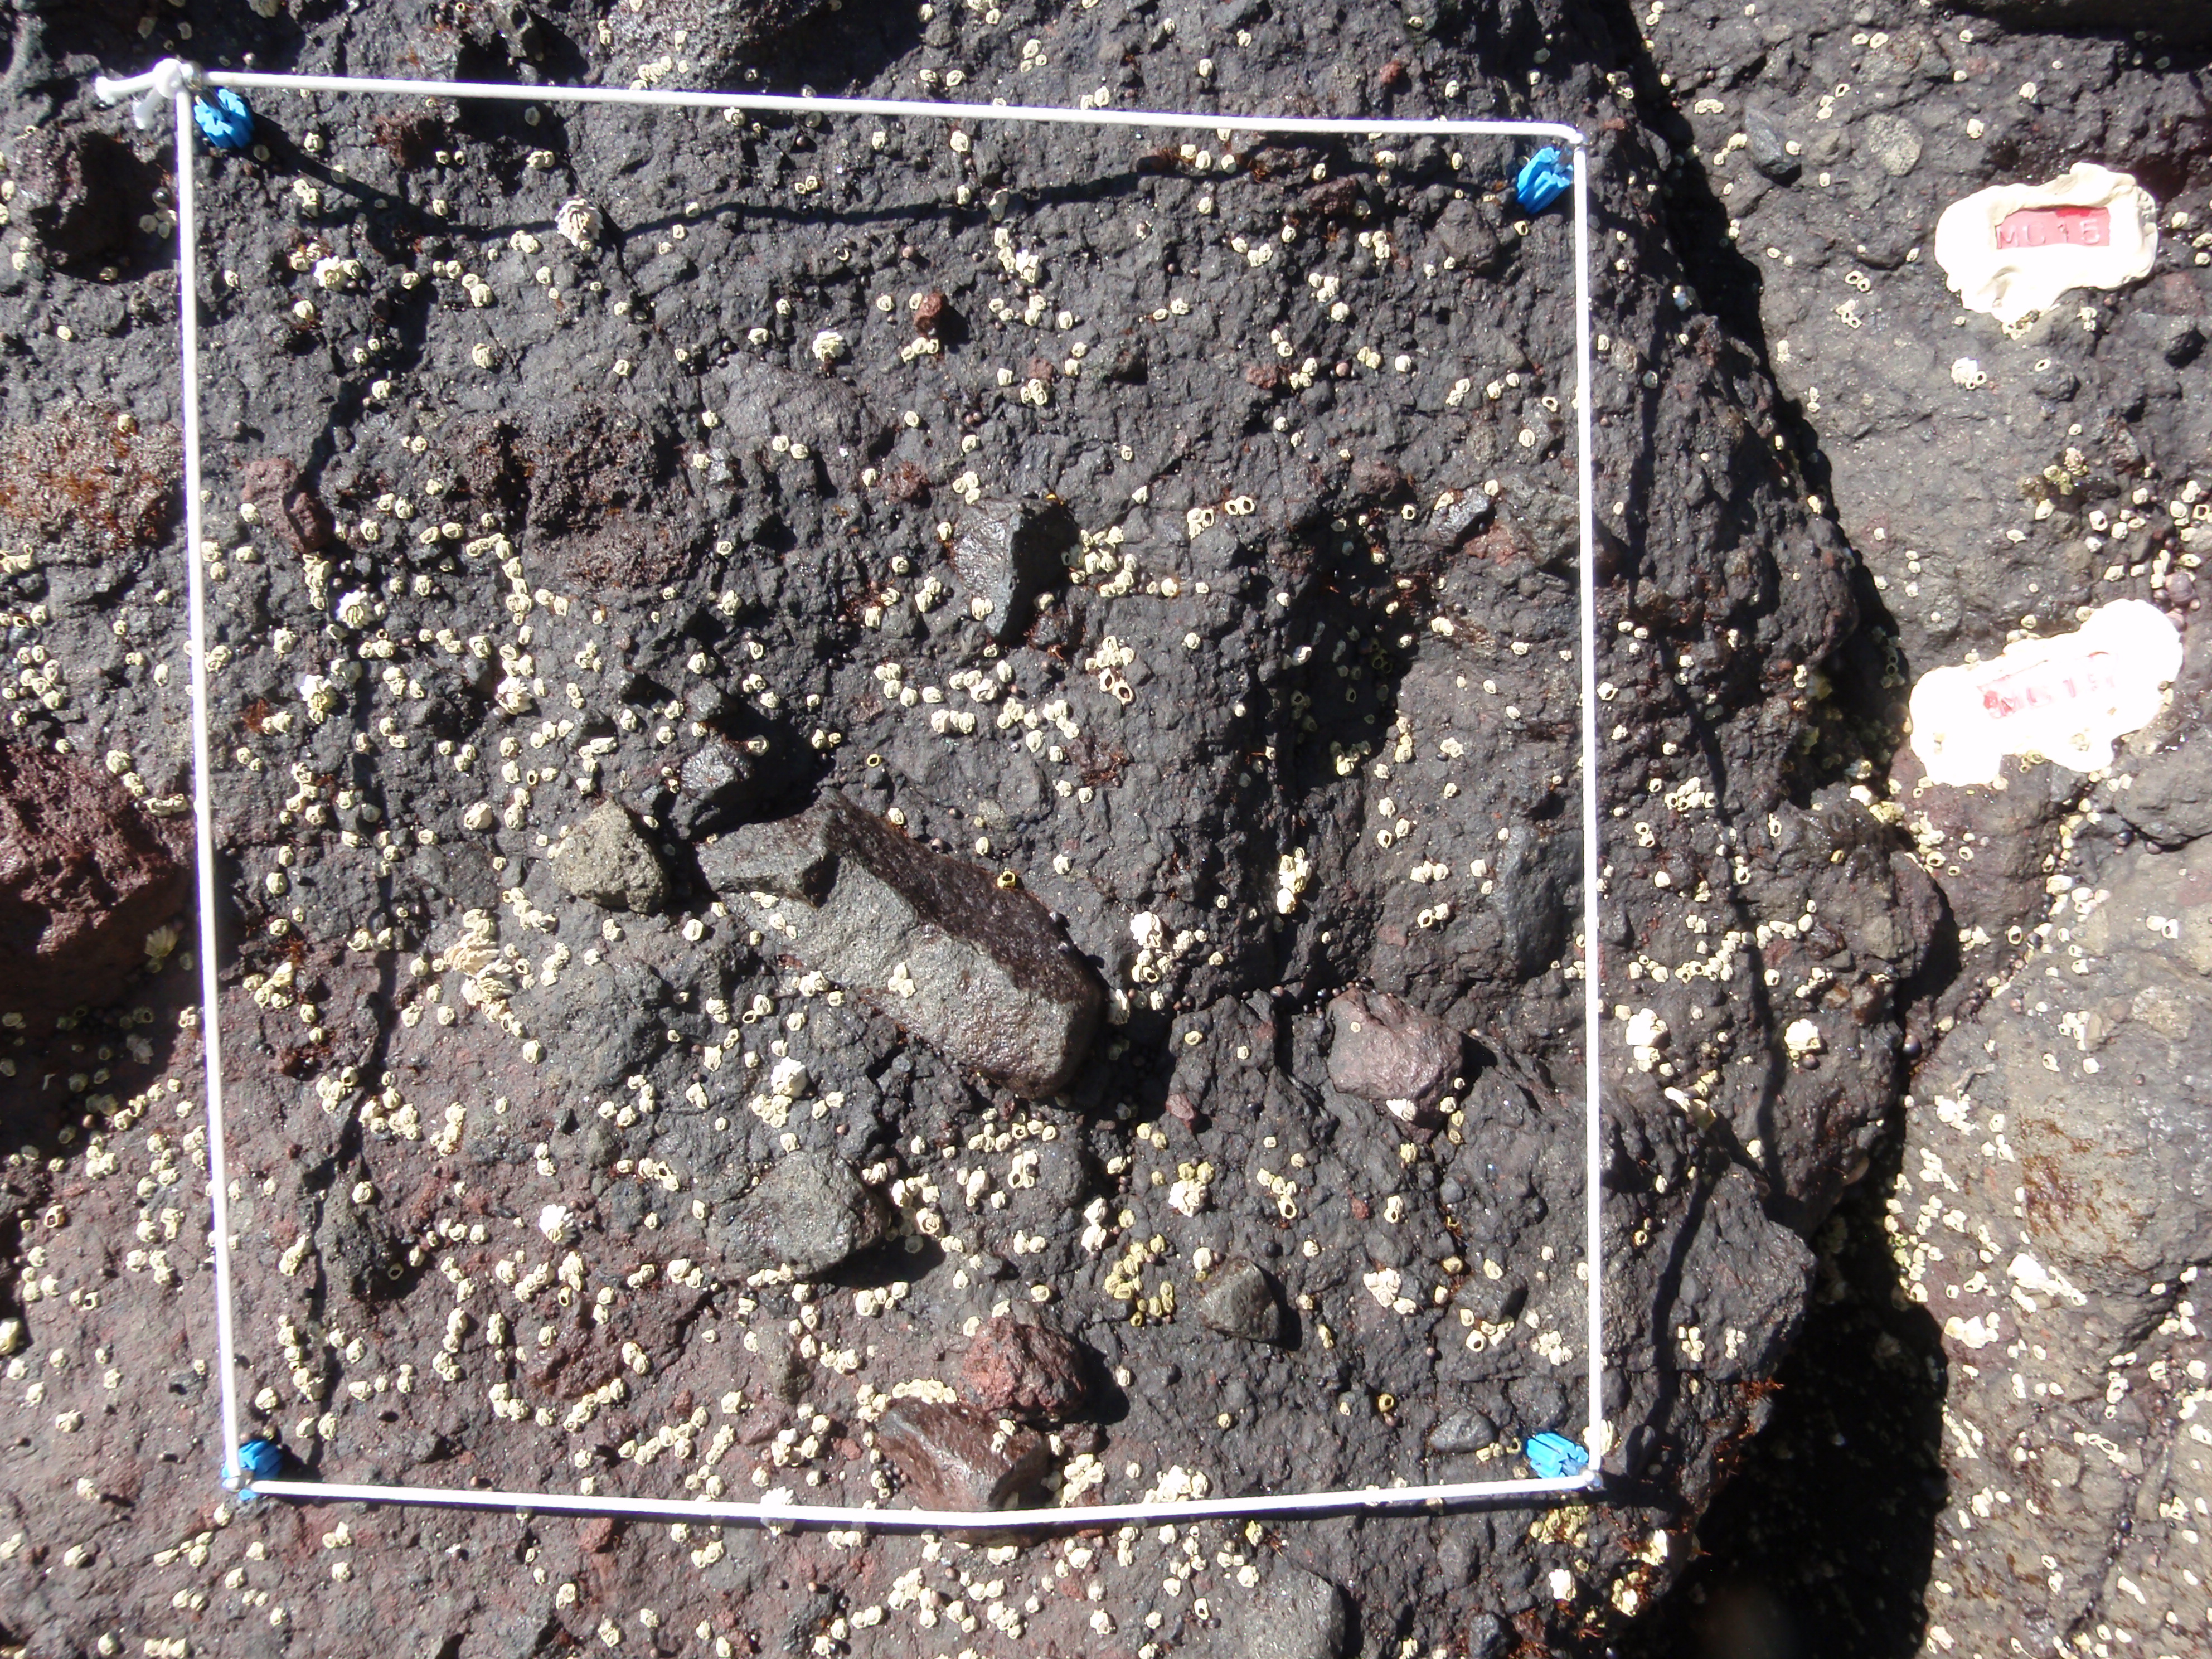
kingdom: Plantae
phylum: Rhodophyta
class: Florideophyceae
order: Gigartinales
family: Endocladiaceae
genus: Gloiopeltis
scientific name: Gloiopeltis furcata
